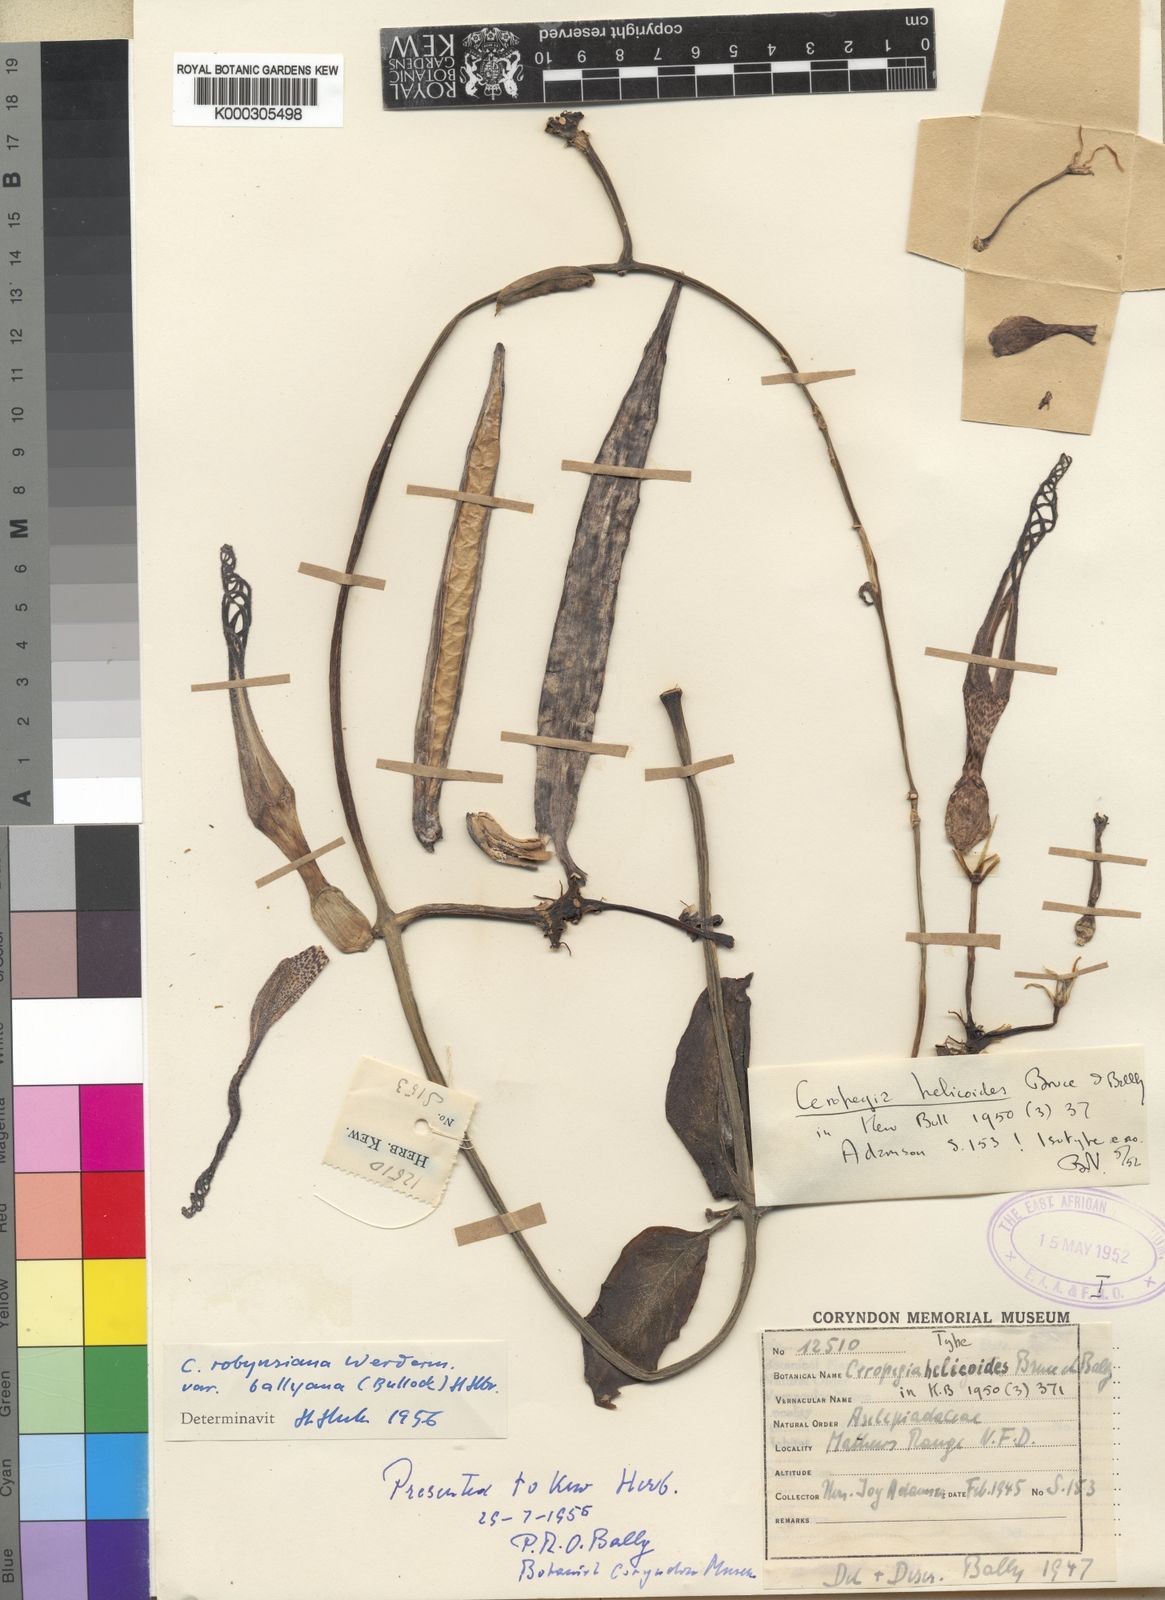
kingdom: Plantae
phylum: Tracheophyta
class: Magnoliopsida
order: Gentianales
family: Apocynaceae
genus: Ceropegia
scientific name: Ceropegia ballyana
